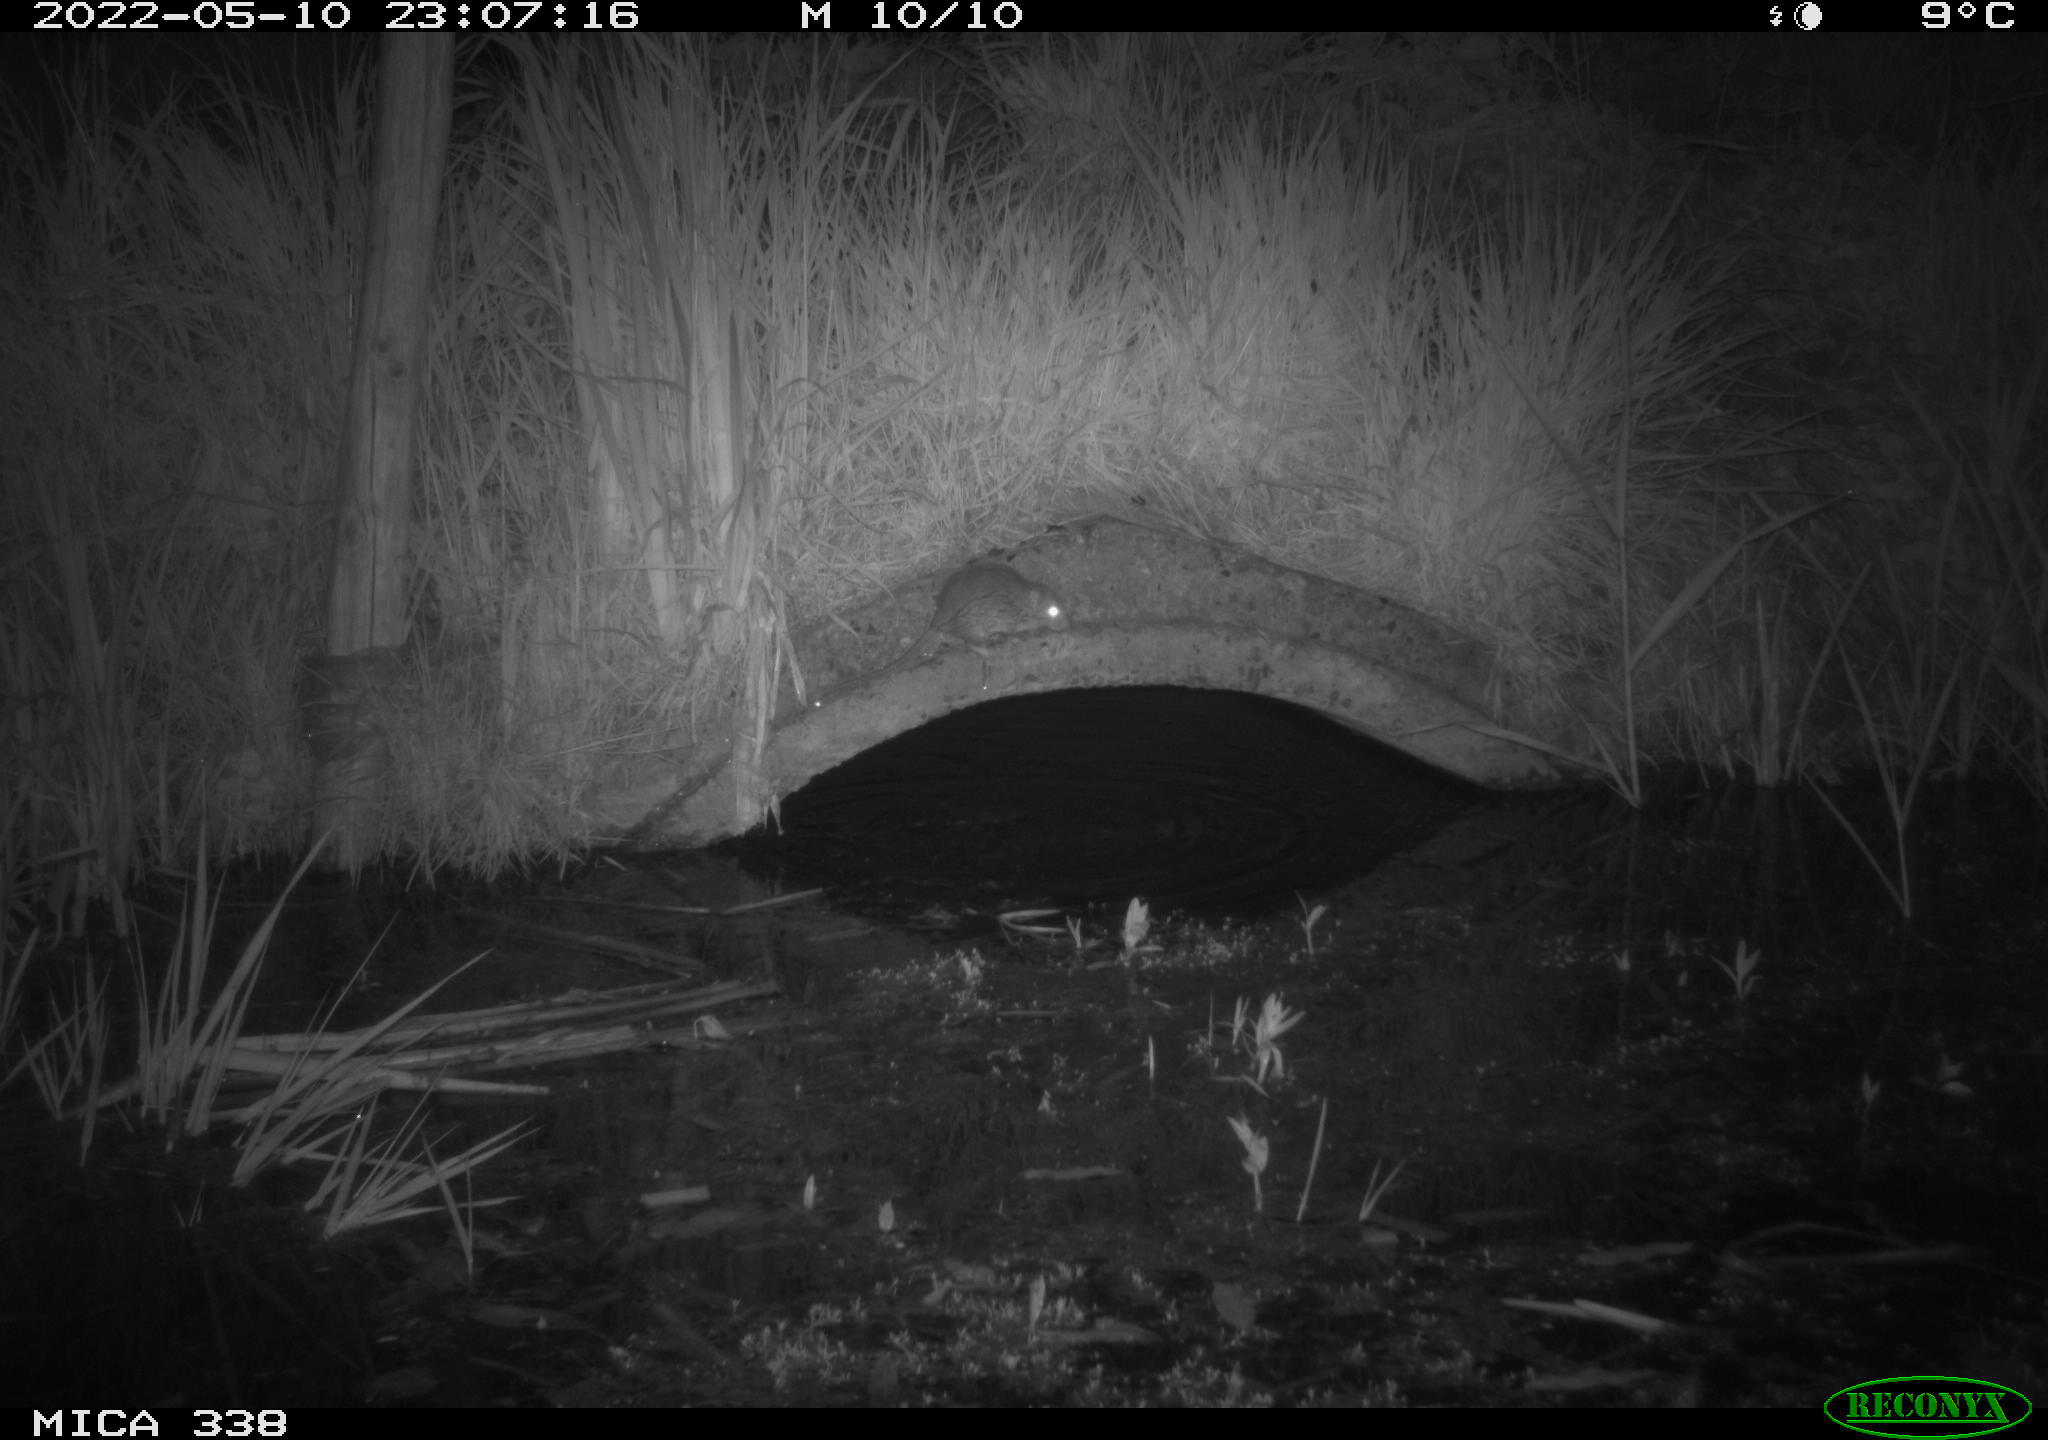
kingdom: Animalia
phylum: Chordata
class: Mammalia
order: Rodentia
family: Muridae
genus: Rattus
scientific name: Rattus norvegicus
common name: Brown rat
